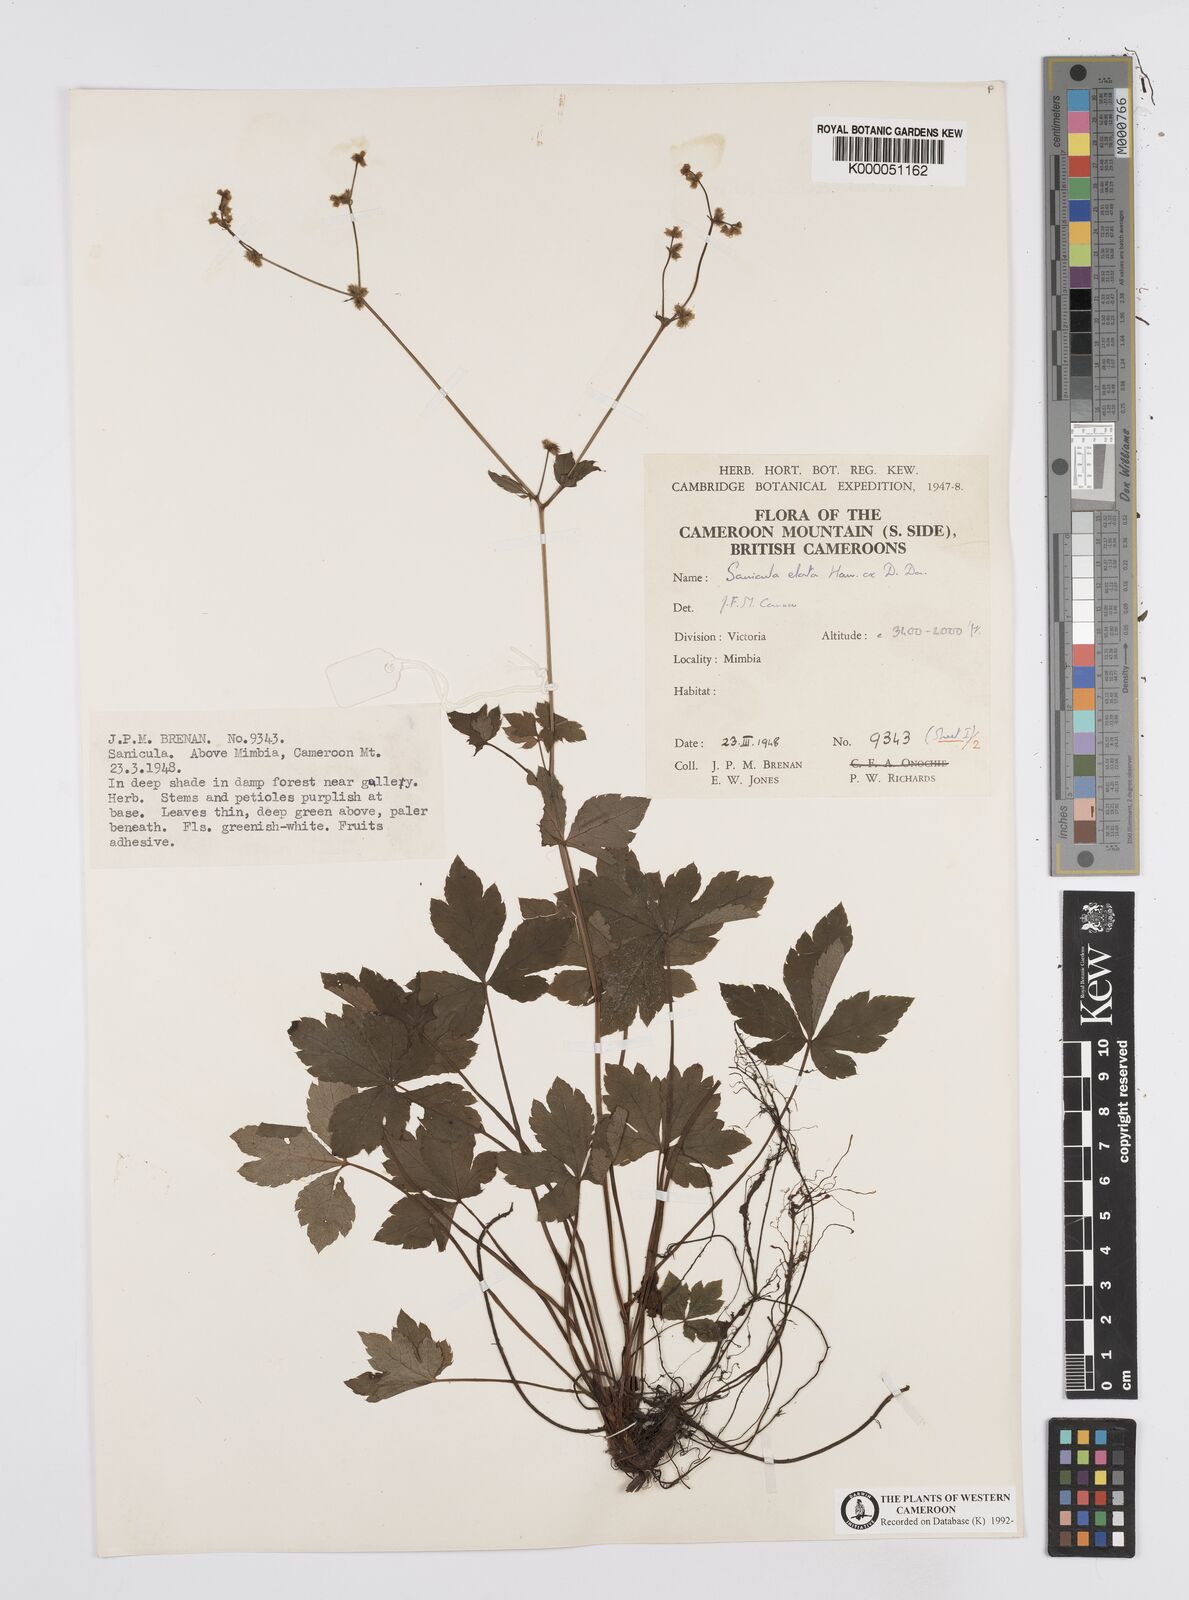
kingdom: Plantae
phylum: Tracheophyta
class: Magnoliopsida
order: Apiales
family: Apiaceae
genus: Sanicula
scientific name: Sanicula
